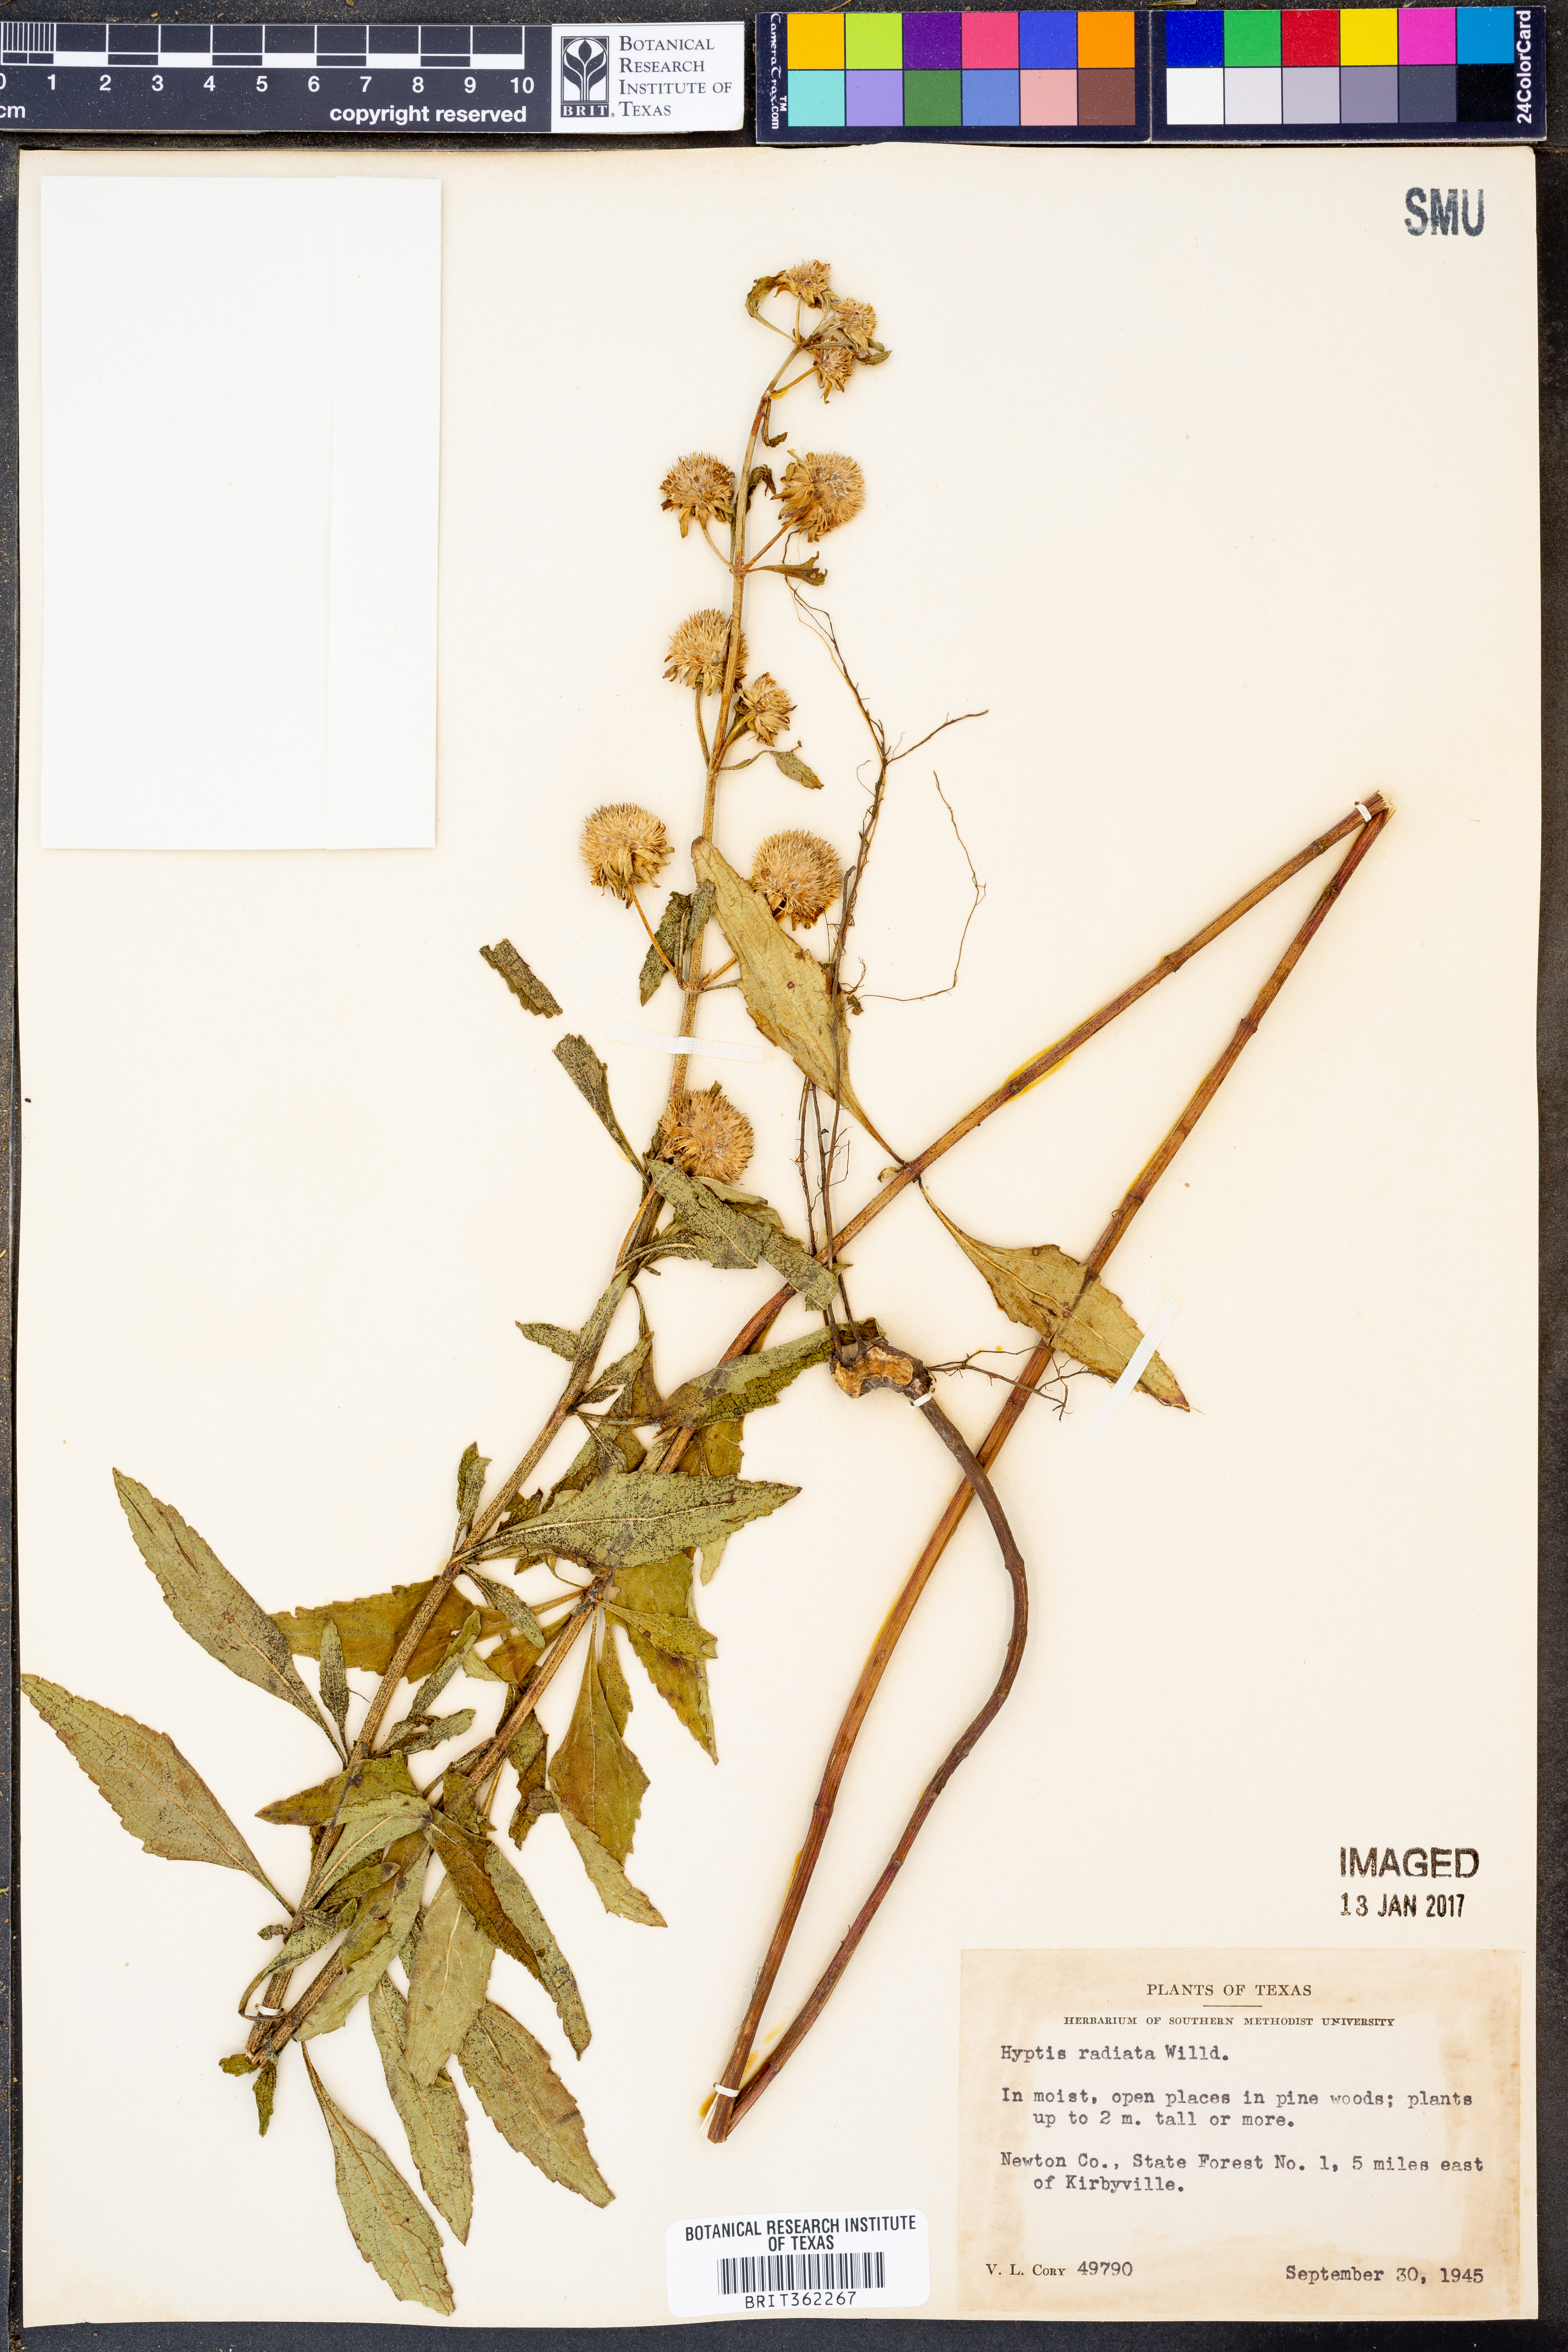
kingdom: Plantae
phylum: Tracheophyta
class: Magnoliopsida
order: Lamiales
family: Lamiaceae
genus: Hyptis
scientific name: Hyptis alata
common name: Cluster bush-mint
